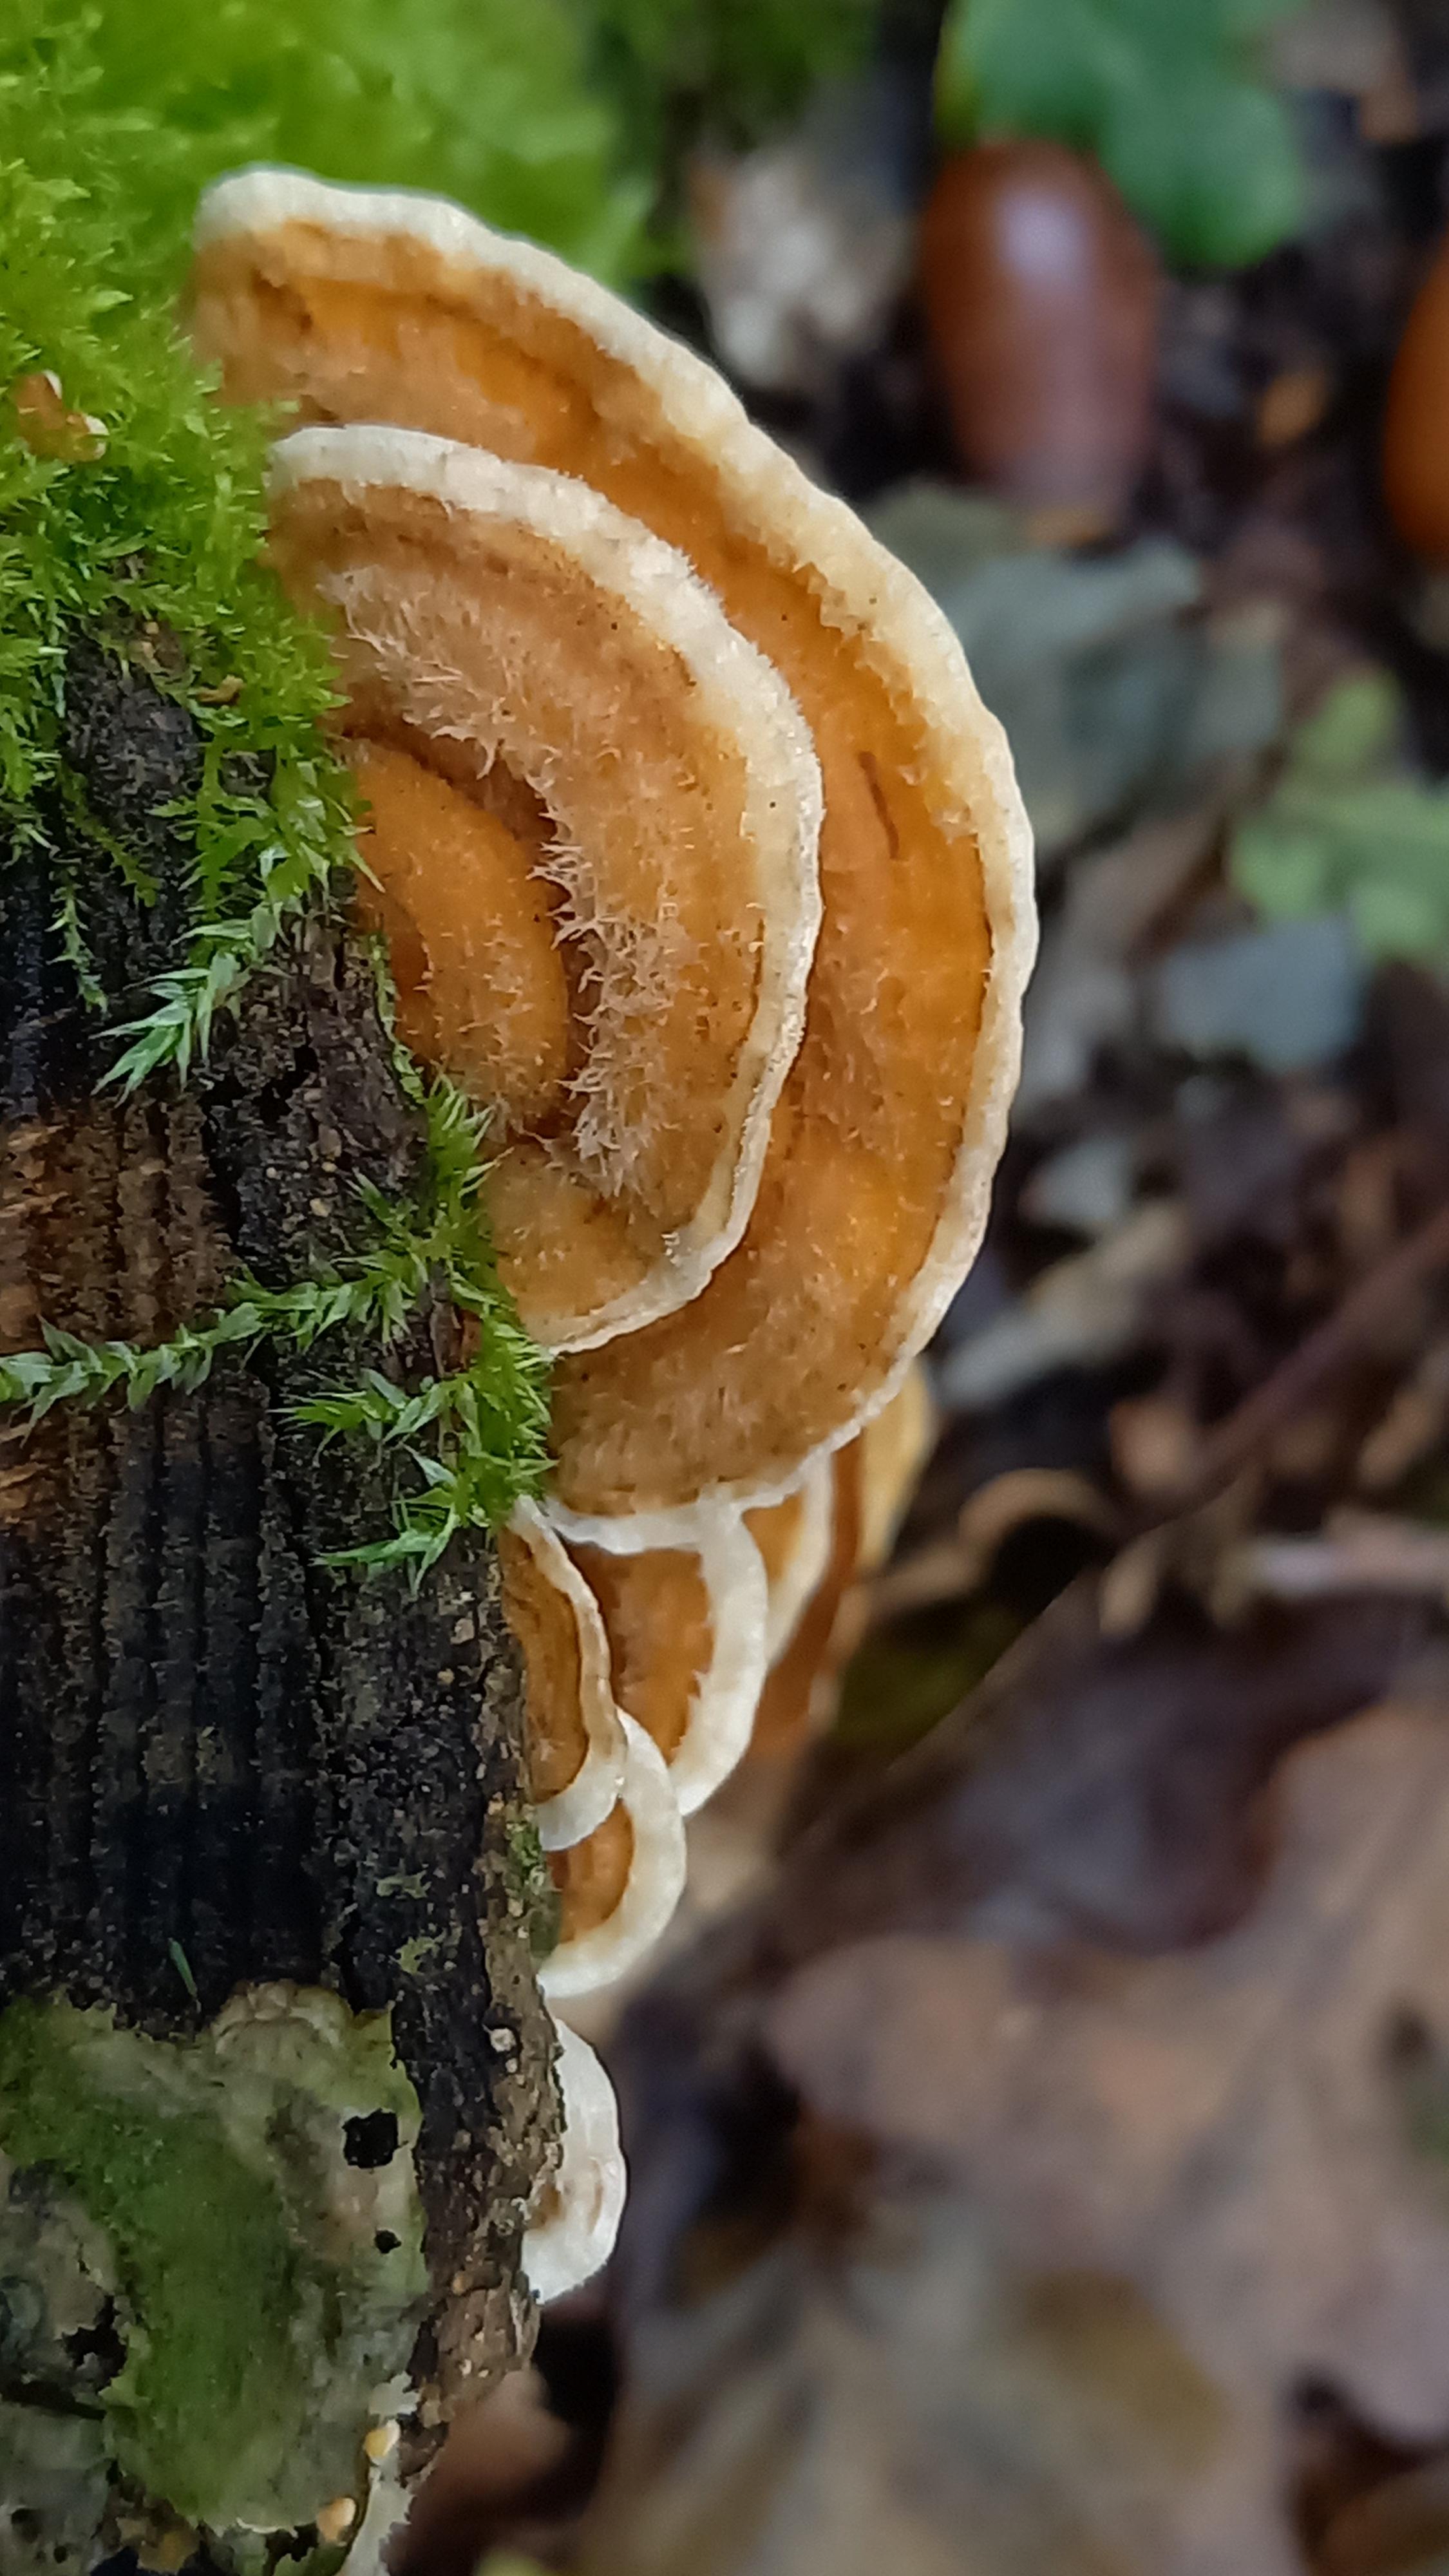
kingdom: Fungi
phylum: Basidiomycota
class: Agaricomycetes
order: Russulales
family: Stereaceae
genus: Stereum
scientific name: Stereum hirsutum
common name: håret lædersvamp
